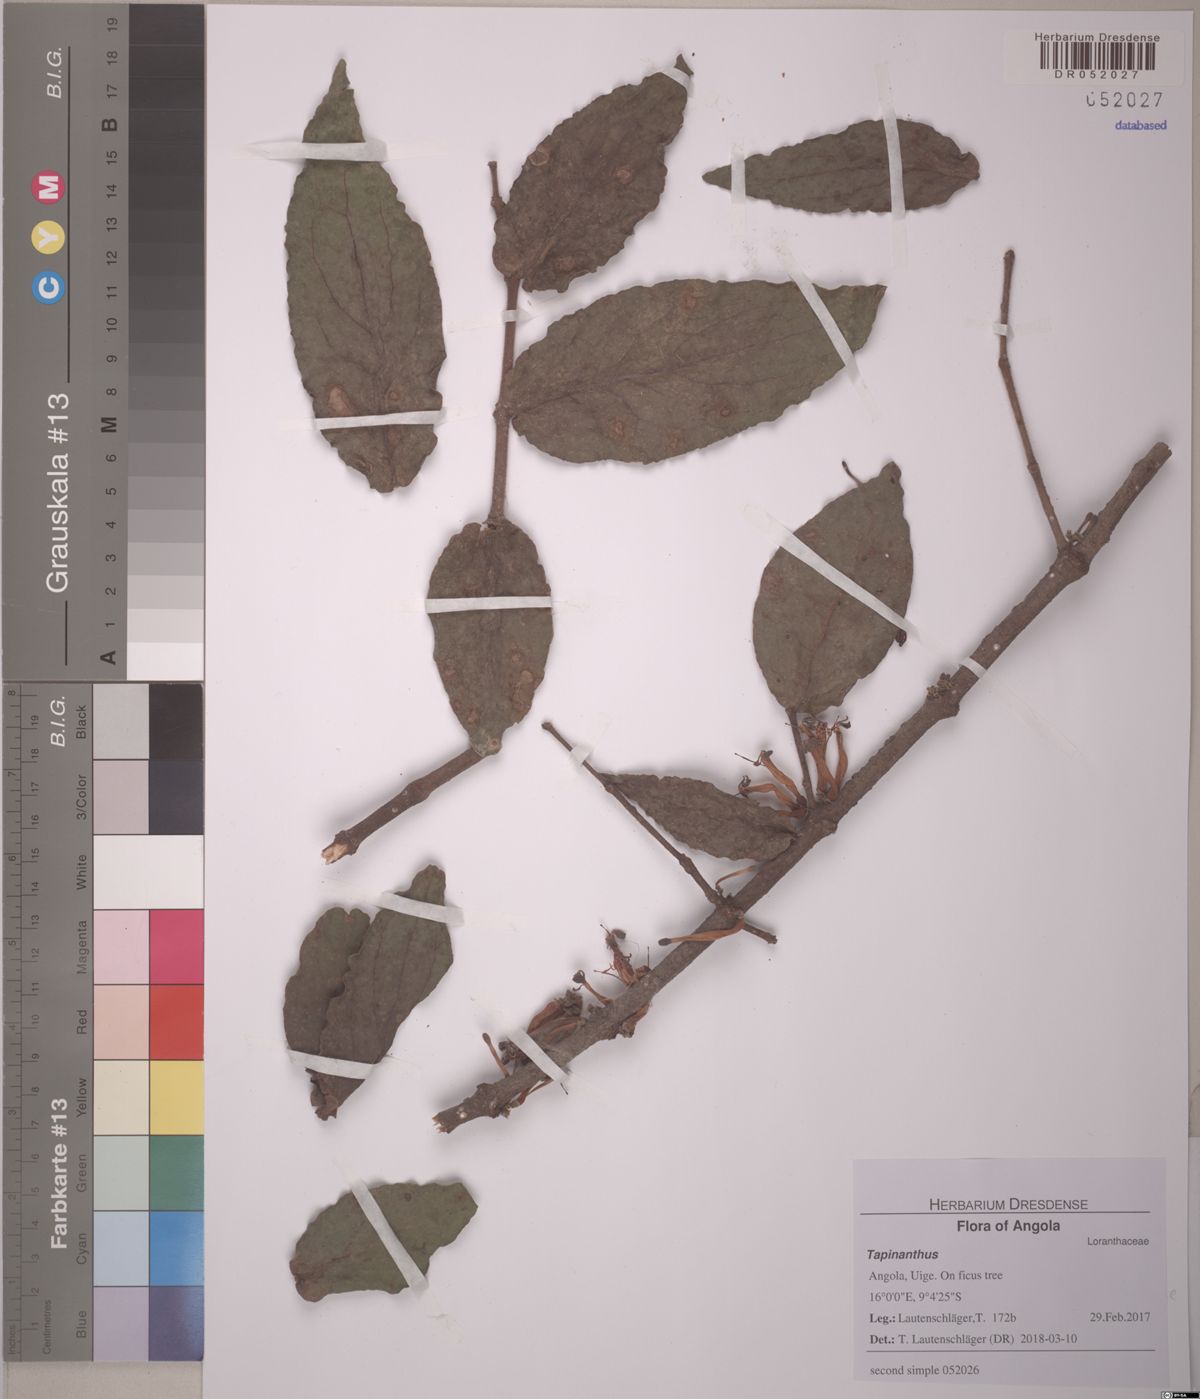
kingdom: Plantae
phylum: Tracheophyta
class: Magnoliopsida
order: Santalales
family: Loranthaceae
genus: Tapinanthus
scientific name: Tapinanthus
